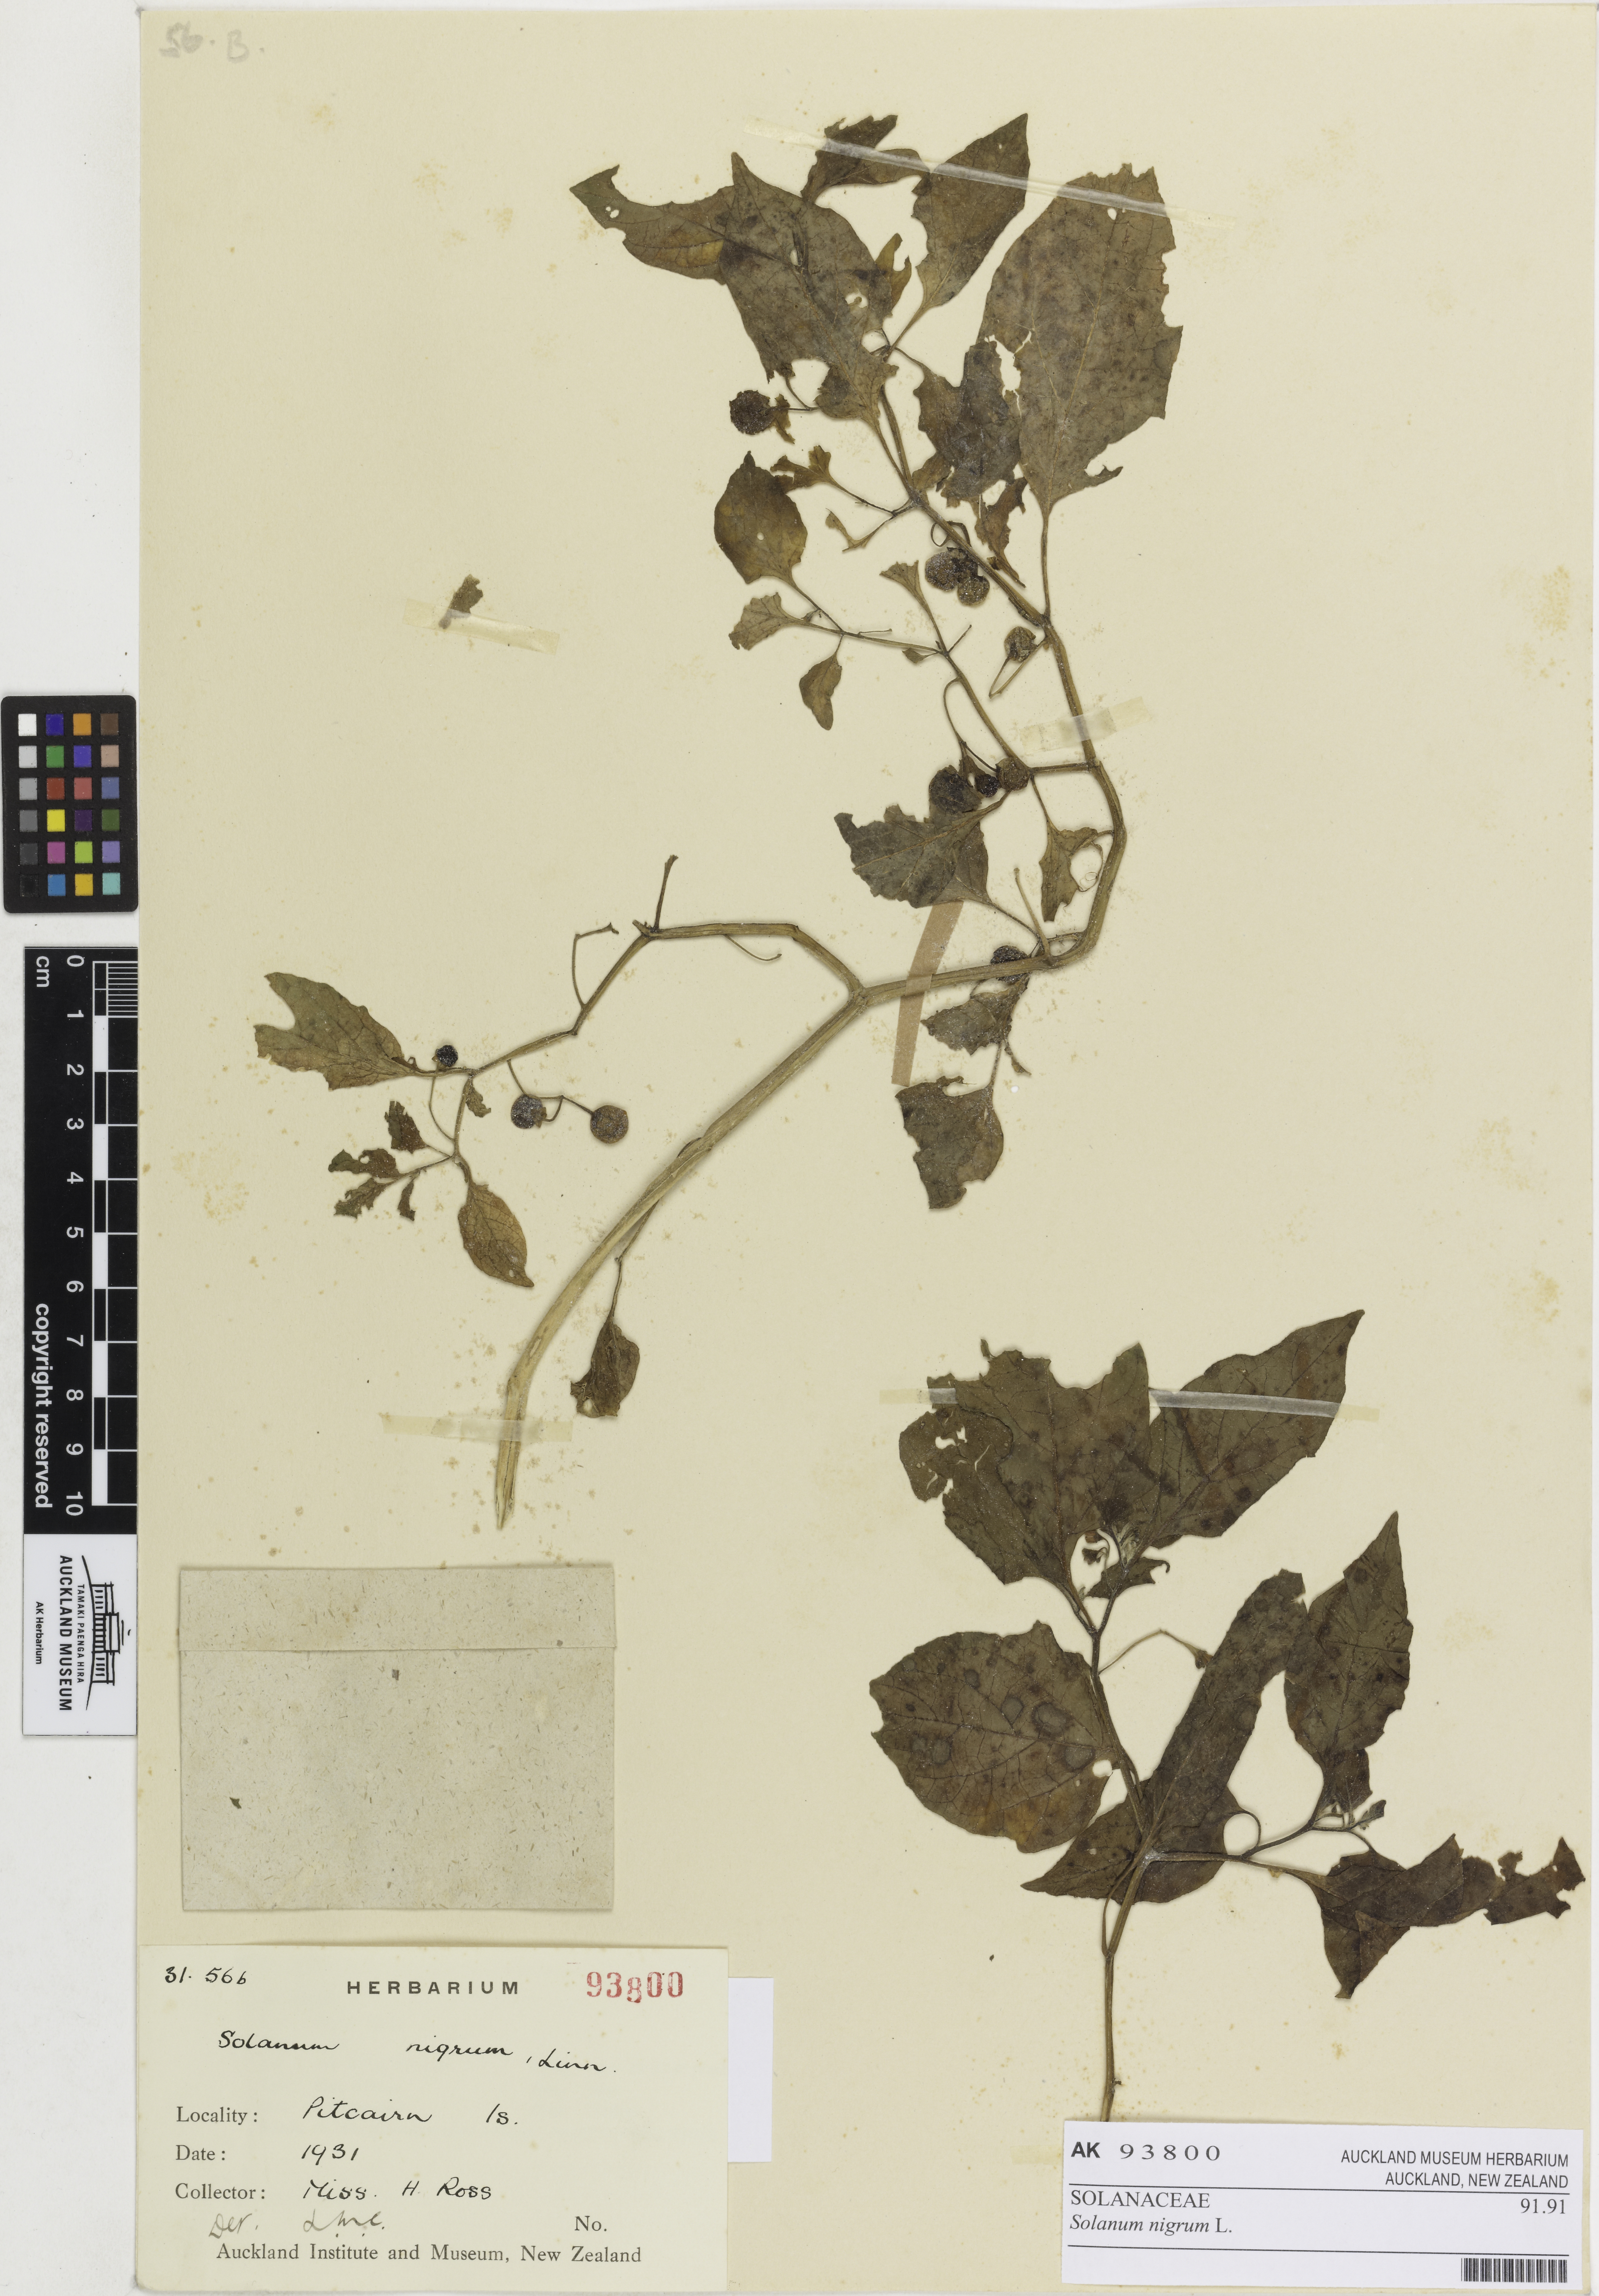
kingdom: Plantae
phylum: Tracheophyta
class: Magnoliopsida
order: Solanales
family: Solanaceae
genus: Solanum
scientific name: Solanum opacum
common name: Green-berry nightshade
